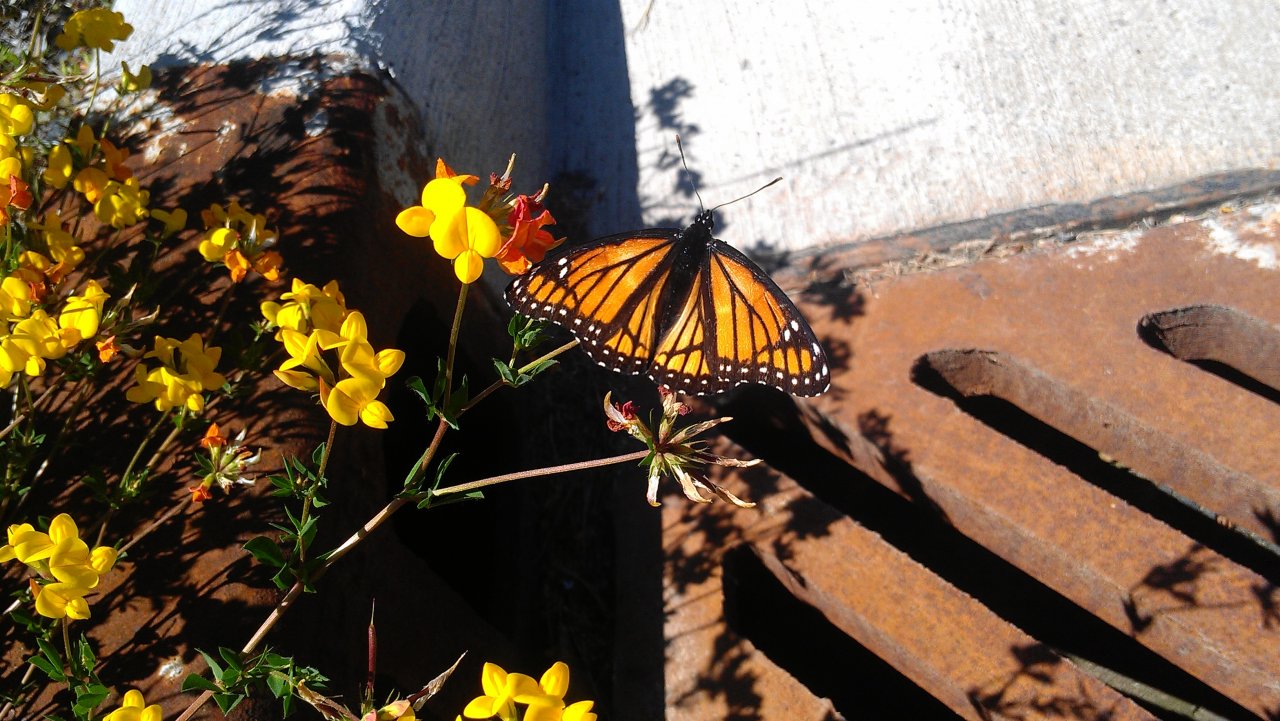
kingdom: Animalia
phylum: Arthropoda
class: Insecta
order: Lepidoptera
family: Nymphalidae
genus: Limenitis
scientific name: Limenitis archippus
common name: Viceroy
